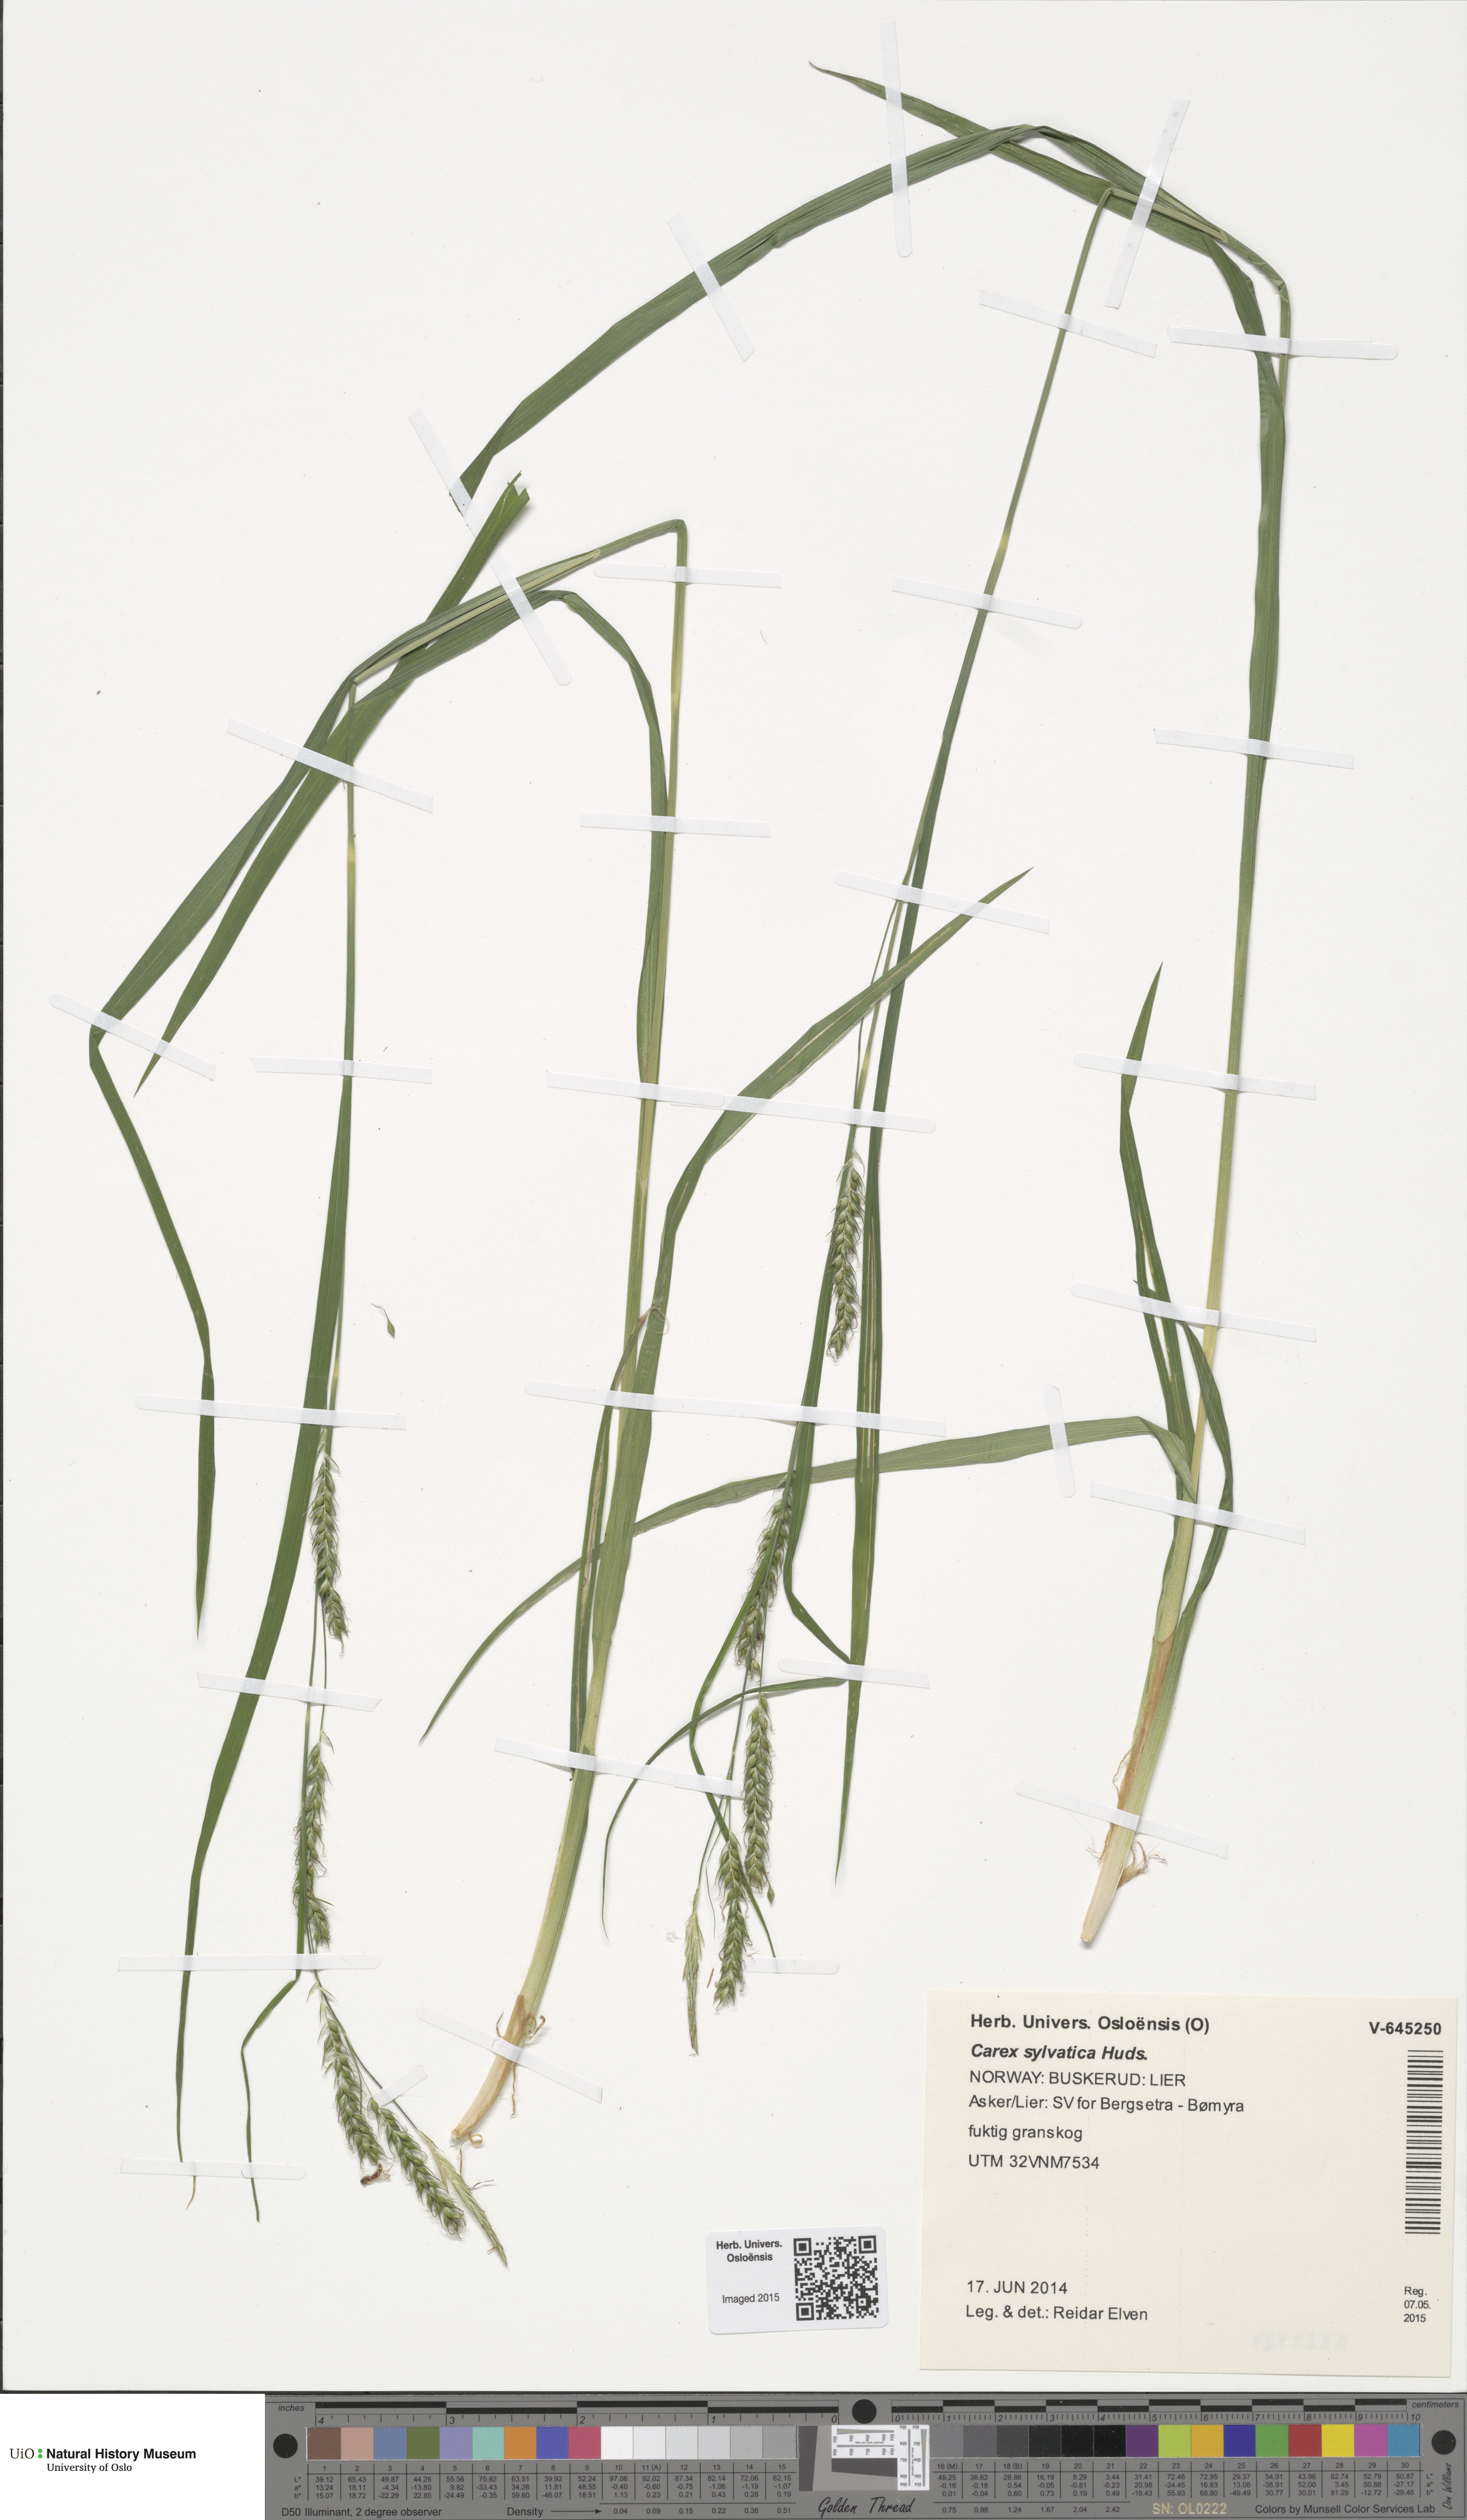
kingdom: Plantae
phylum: Tracheophyta
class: Liliopsida
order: Poales
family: Cyperaceae
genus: Carex
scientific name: Carex sylvatica
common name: Wood-sedge
